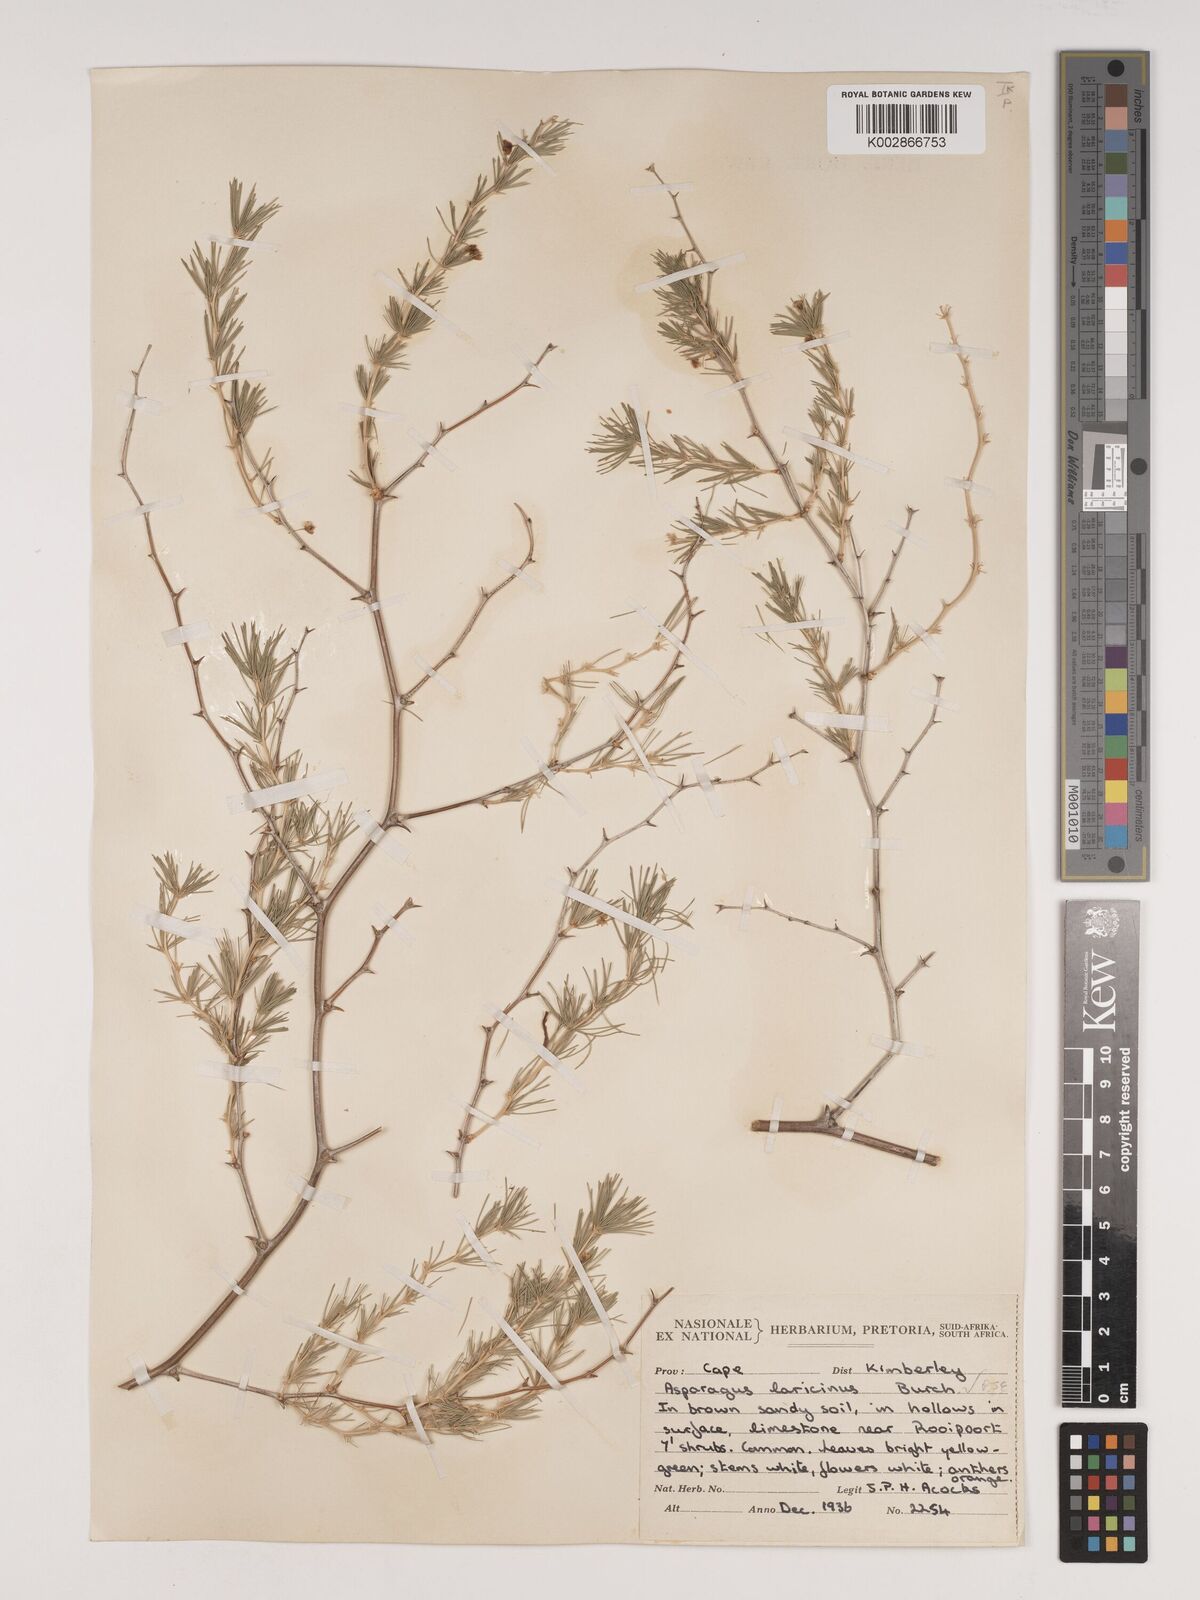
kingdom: Plantae
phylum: Tracheophyta
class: Liliopsida
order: Asparagales
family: Asparagaceae
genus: Asparagus
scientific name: Asparagus laricinus
